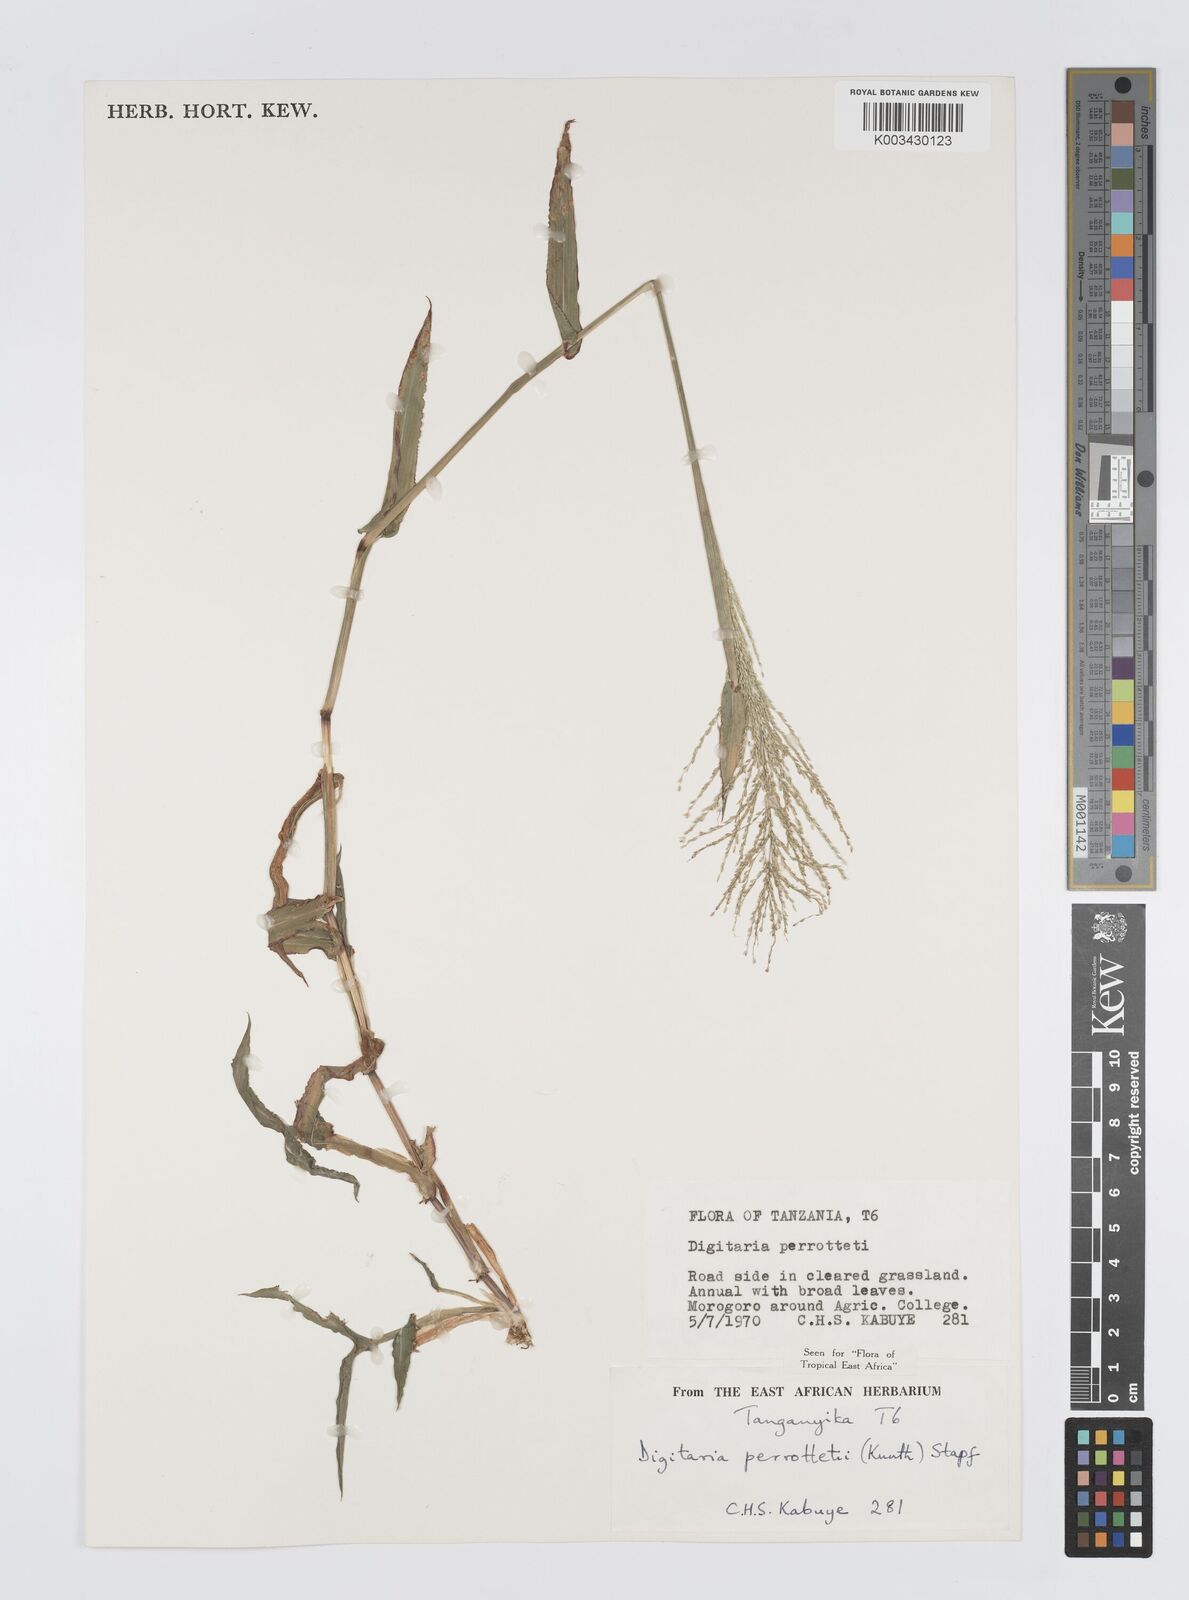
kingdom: Plantae
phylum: Tracheophyta
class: Liliopsida
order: Poales
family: Poaceae
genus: Digitaria
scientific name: Digitaria perrottetii
